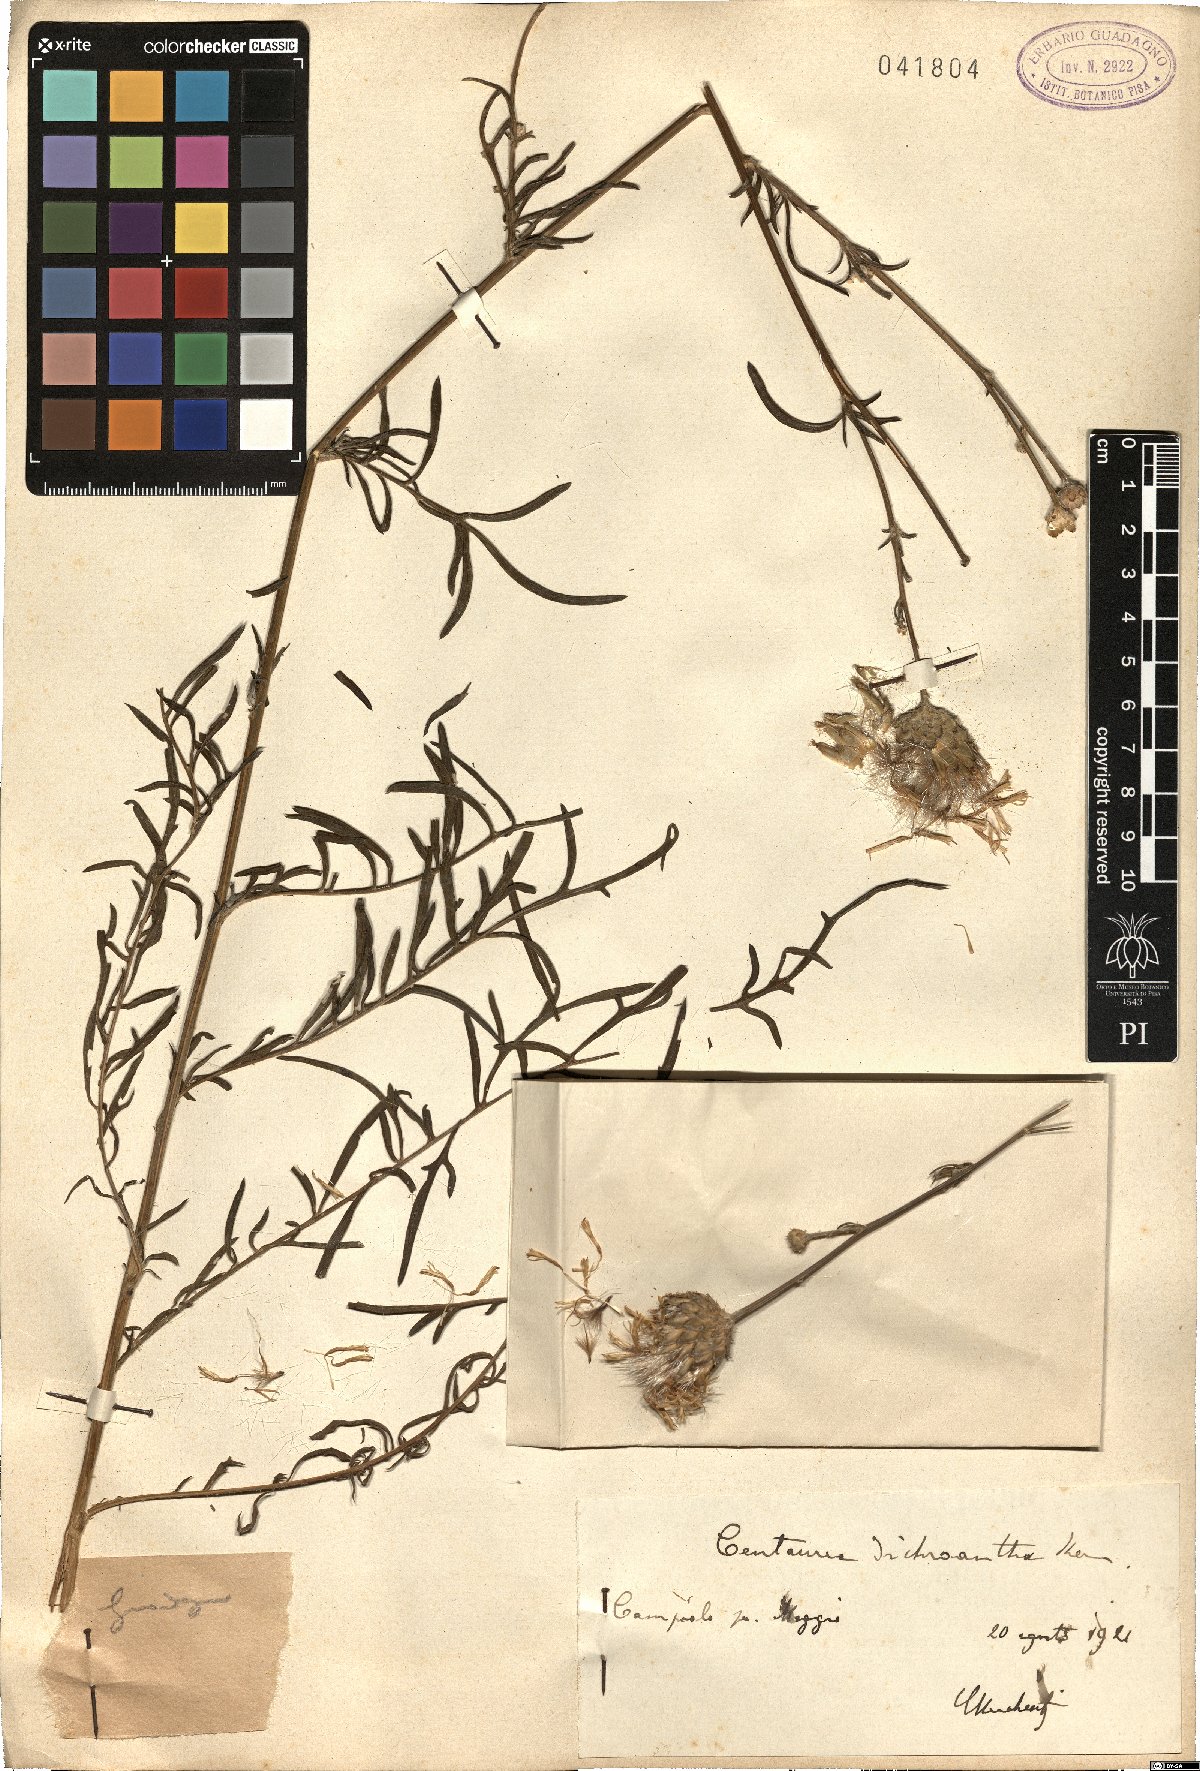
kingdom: Plantae
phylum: Tracheophyta
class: Magnoliopsida
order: Asterales
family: Asteraceae
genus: Centaurea
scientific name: Centaurea dichroantha
